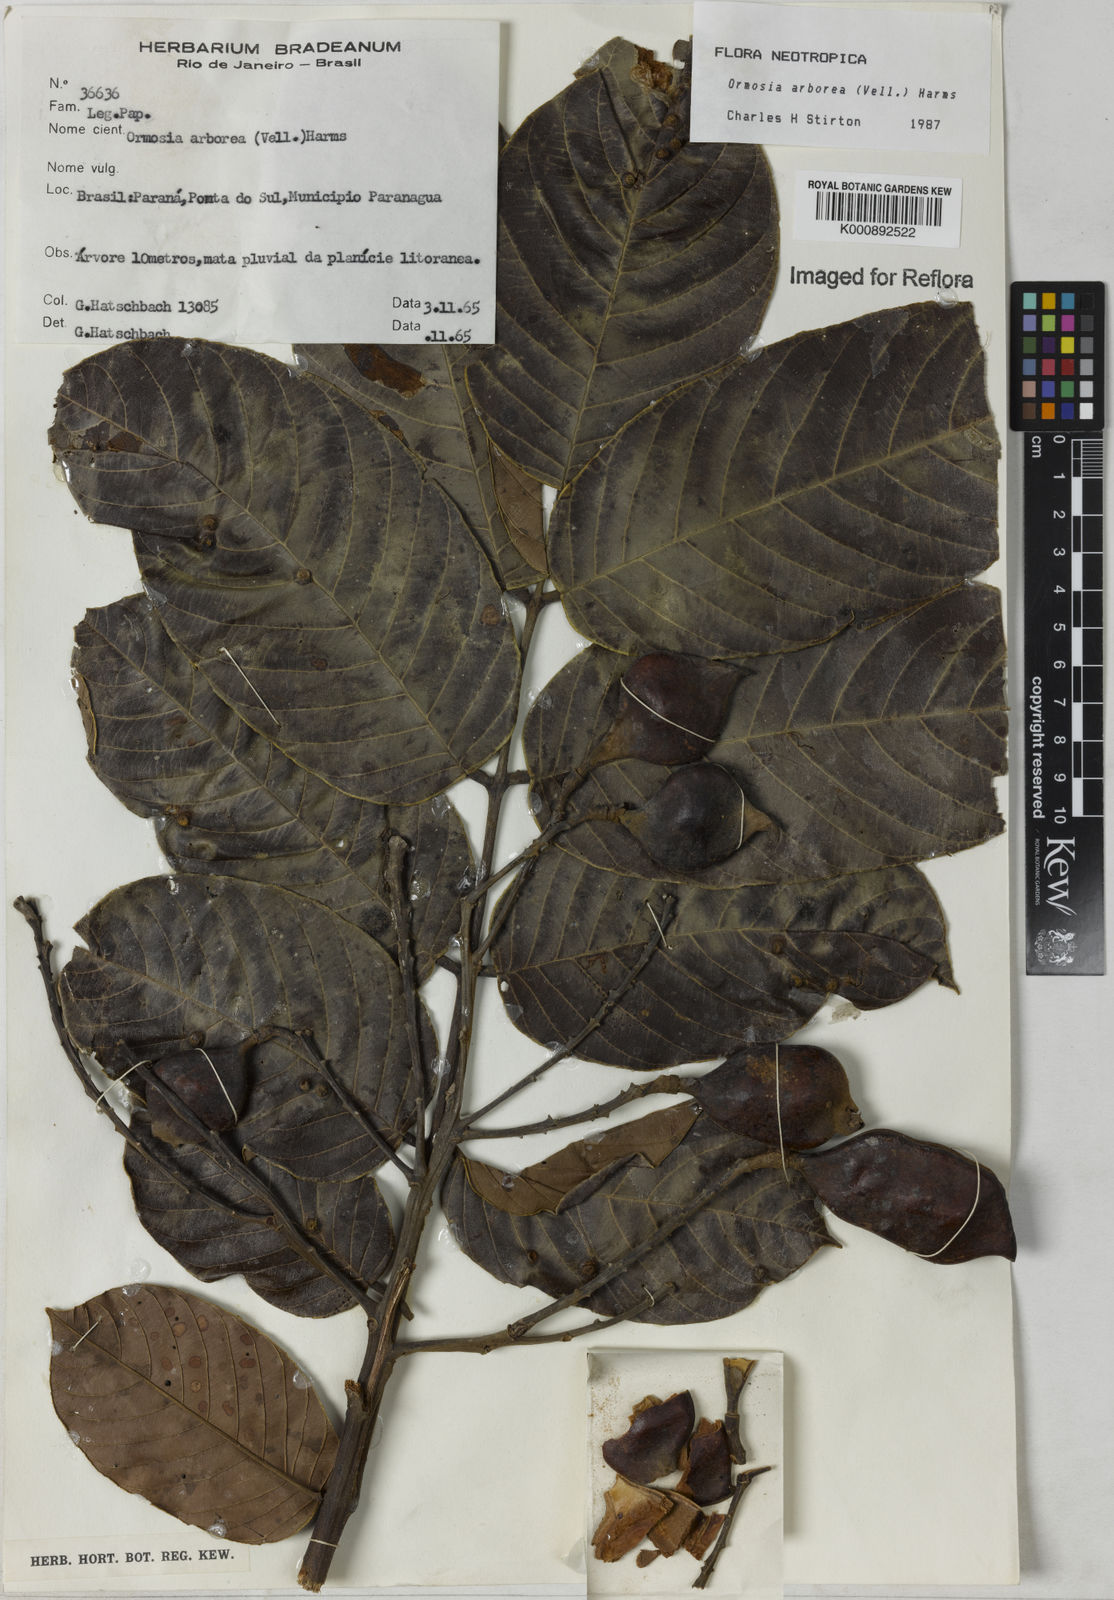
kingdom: Plantae
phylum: Tracheophyta
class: Magnoliopsida
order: Fabales
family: Fabaceae
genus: Ormosia
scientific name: Ormosia arborea
